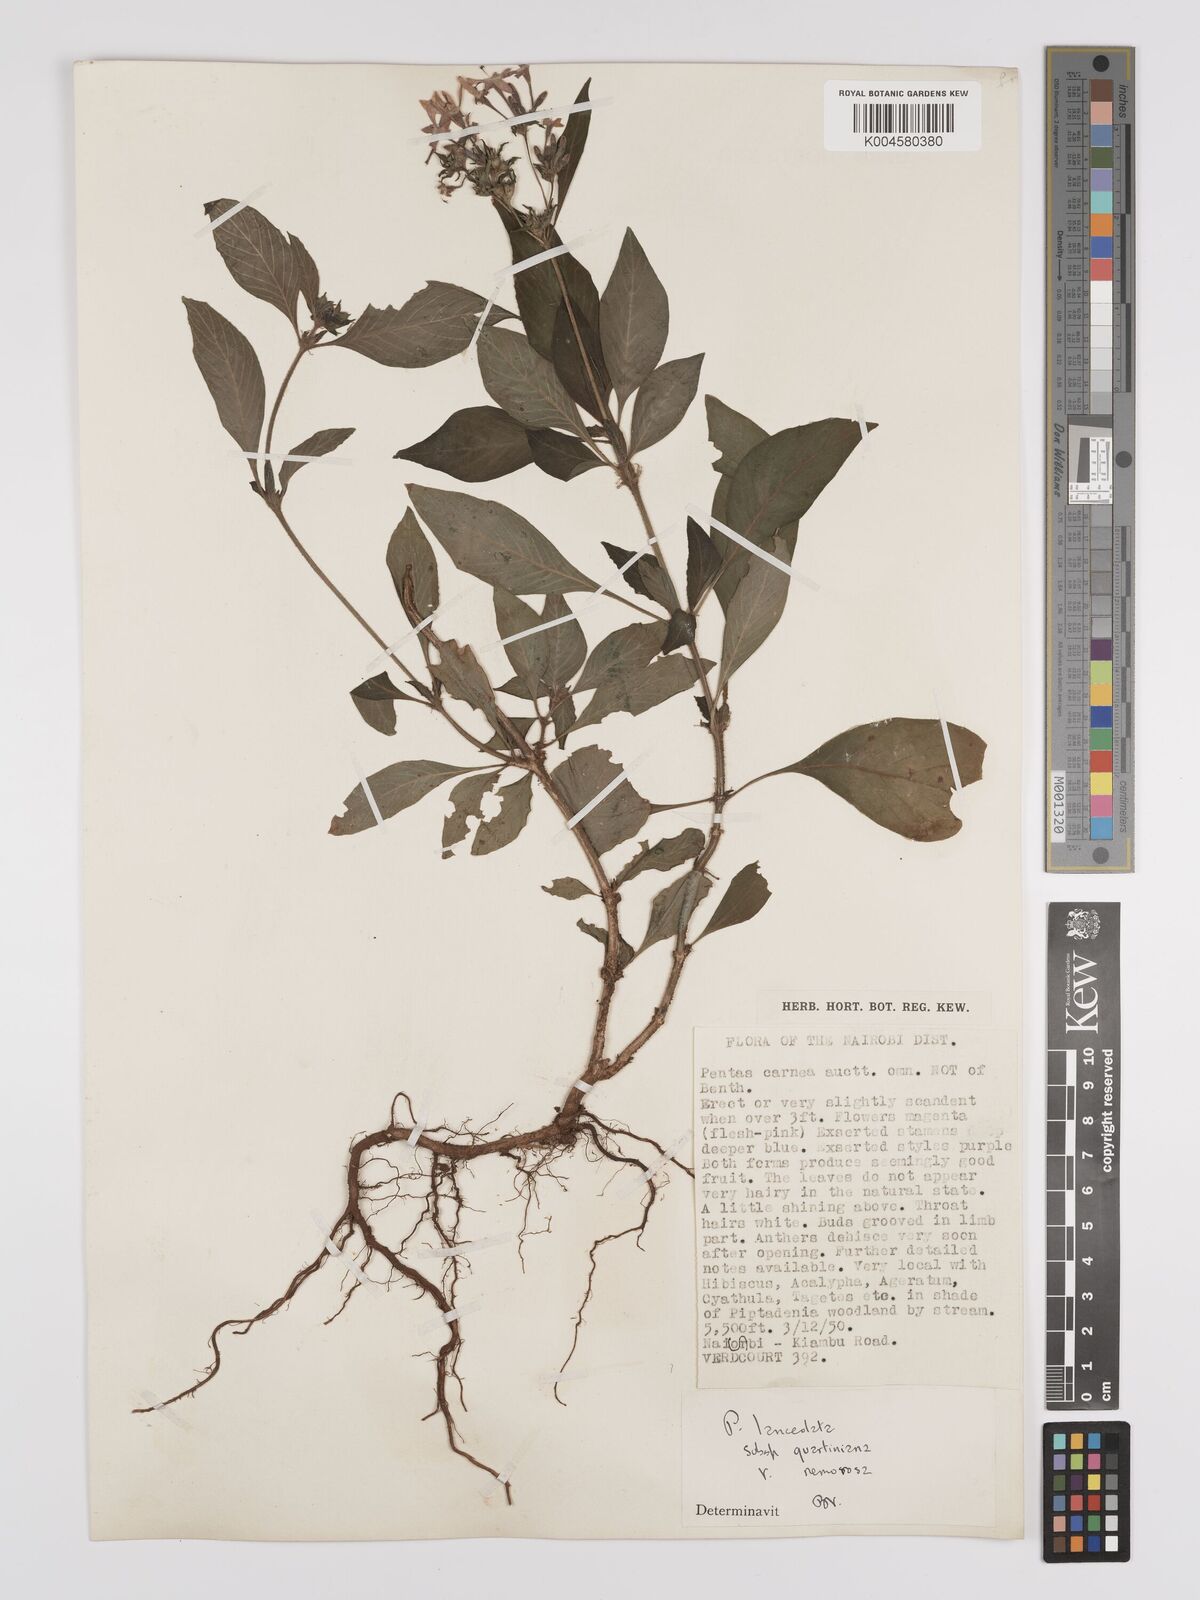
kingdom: Plantae
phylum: Tracheophyta
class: Magnoliopsida
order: Gentianales
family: Rubiaceae
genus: Pentas
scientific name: Pentas lanceolata
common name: Egyptian starcluster
